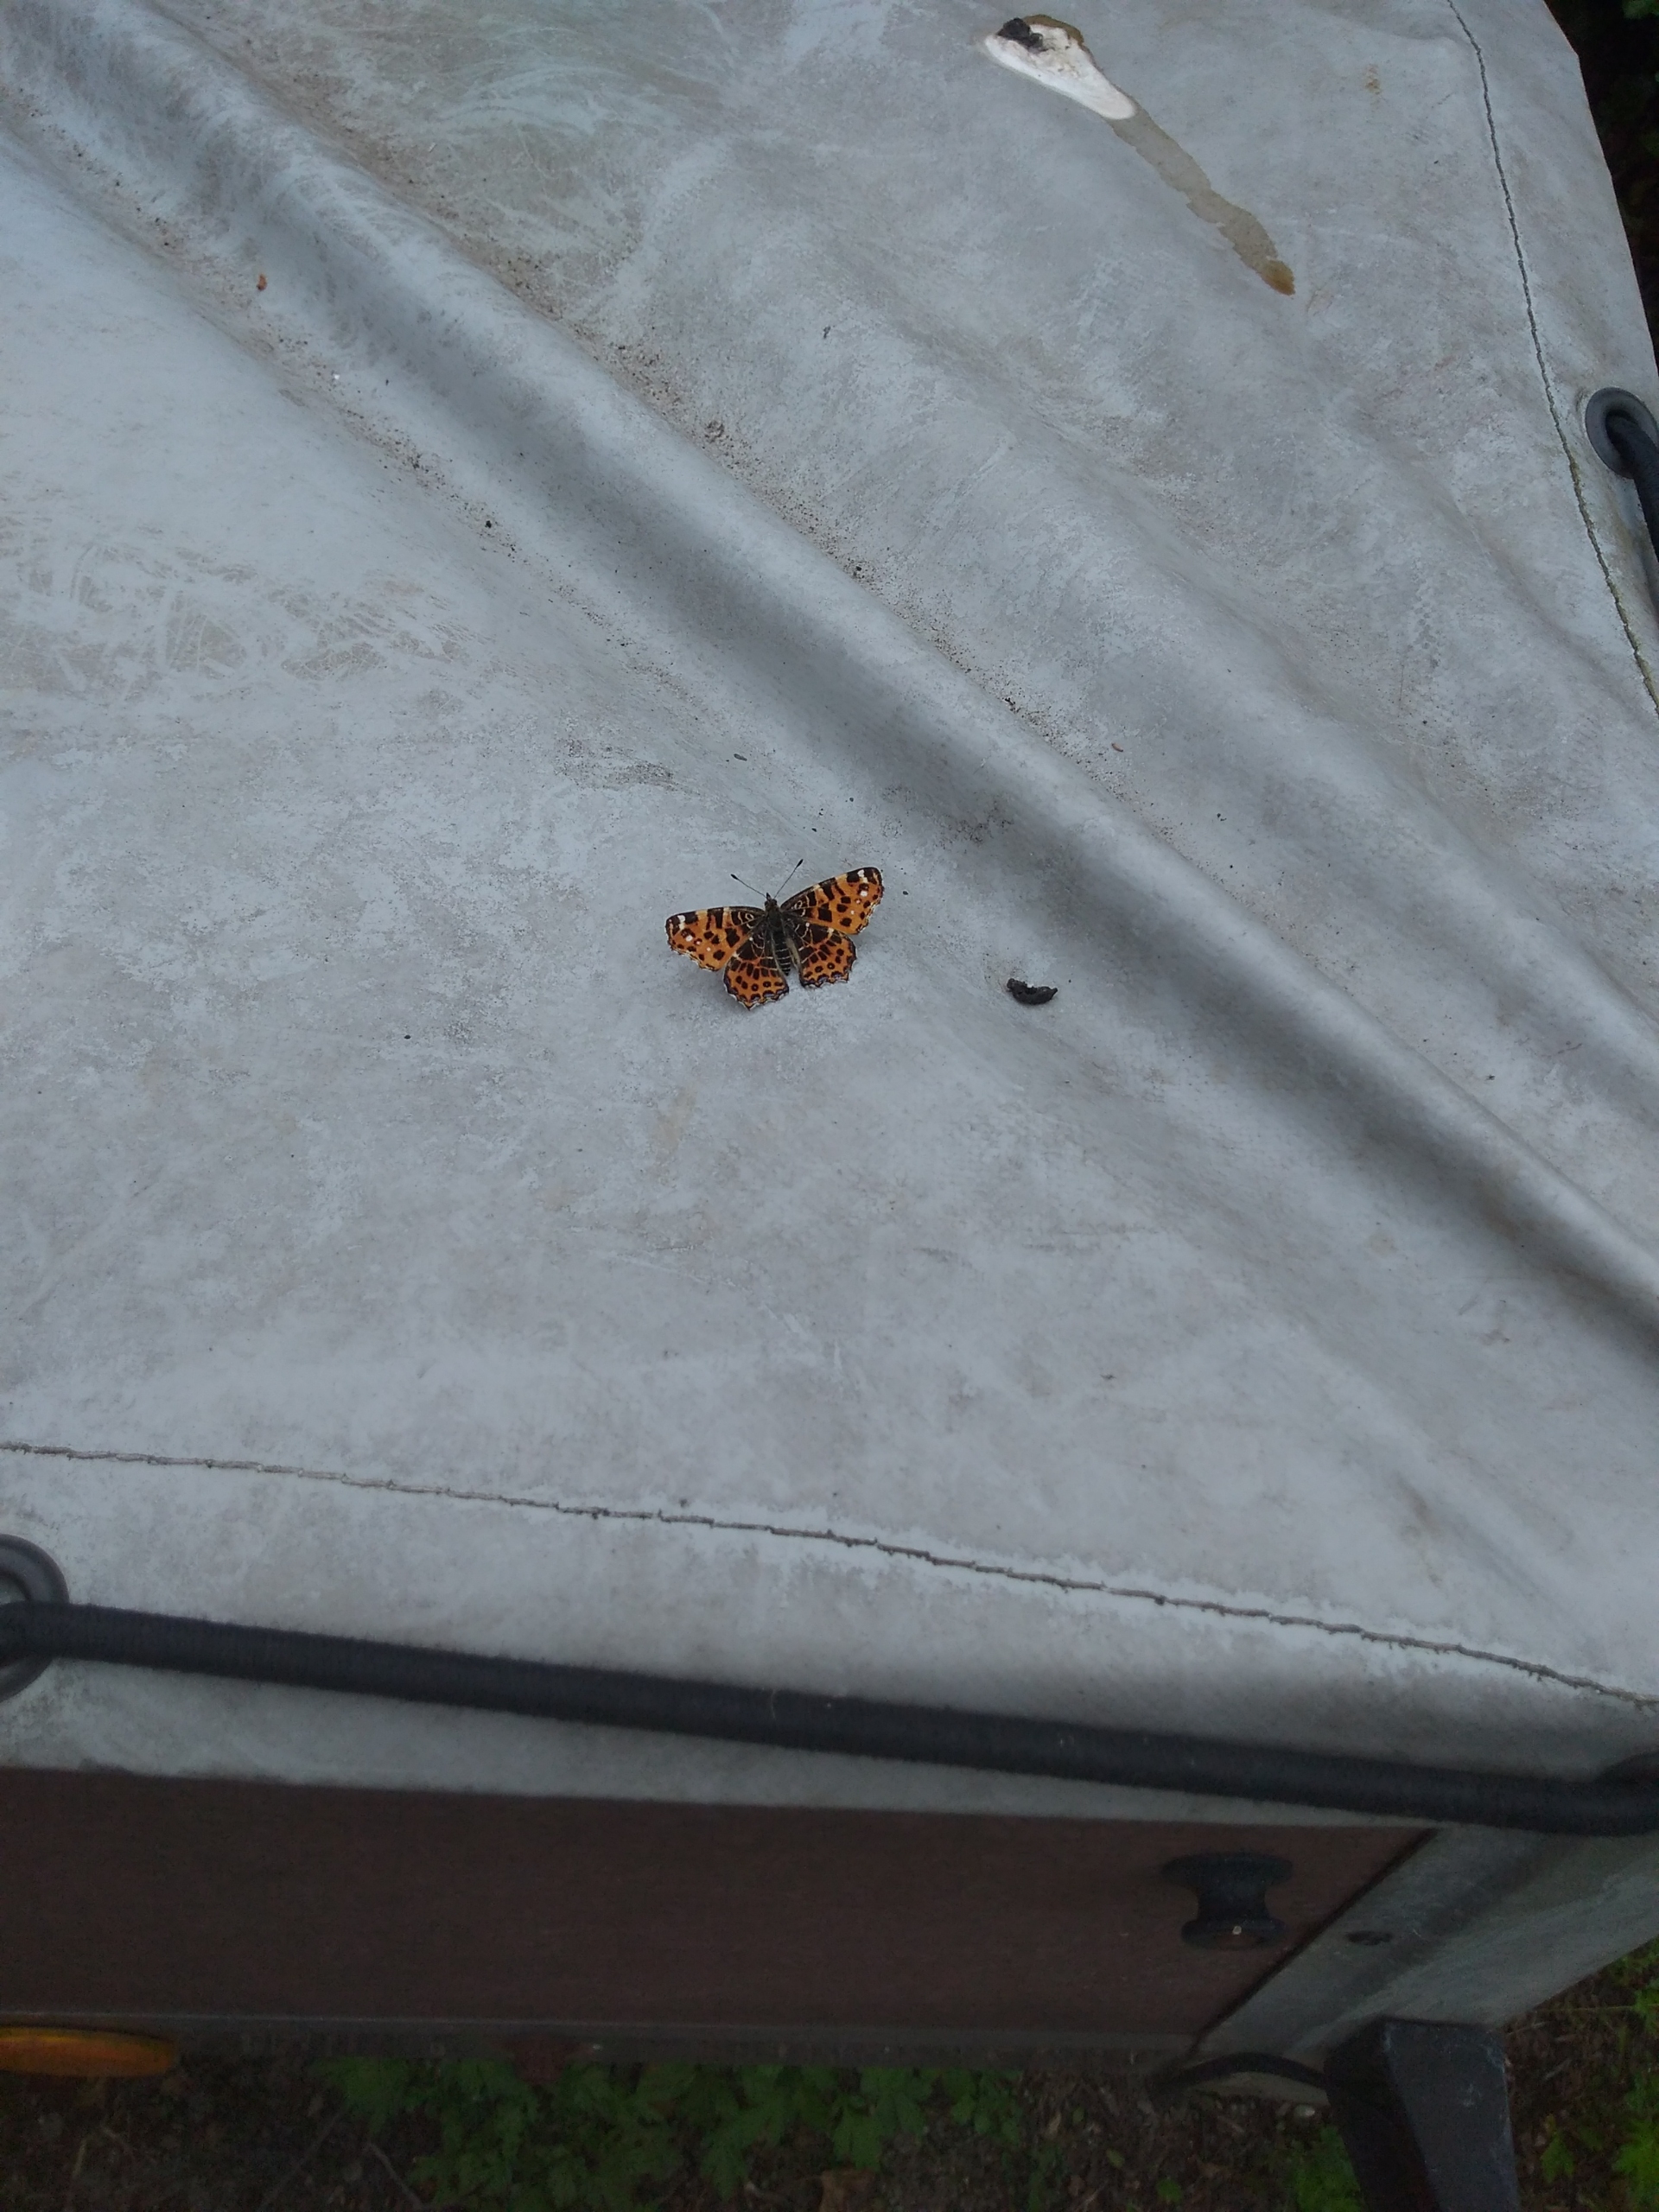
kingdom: Animalia
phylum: Arthropoda
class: Insecta
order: Lepidoptera
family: Nymphalidae
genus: Araschnia
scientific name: Araschnia levana
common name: Nældesommerfugl
